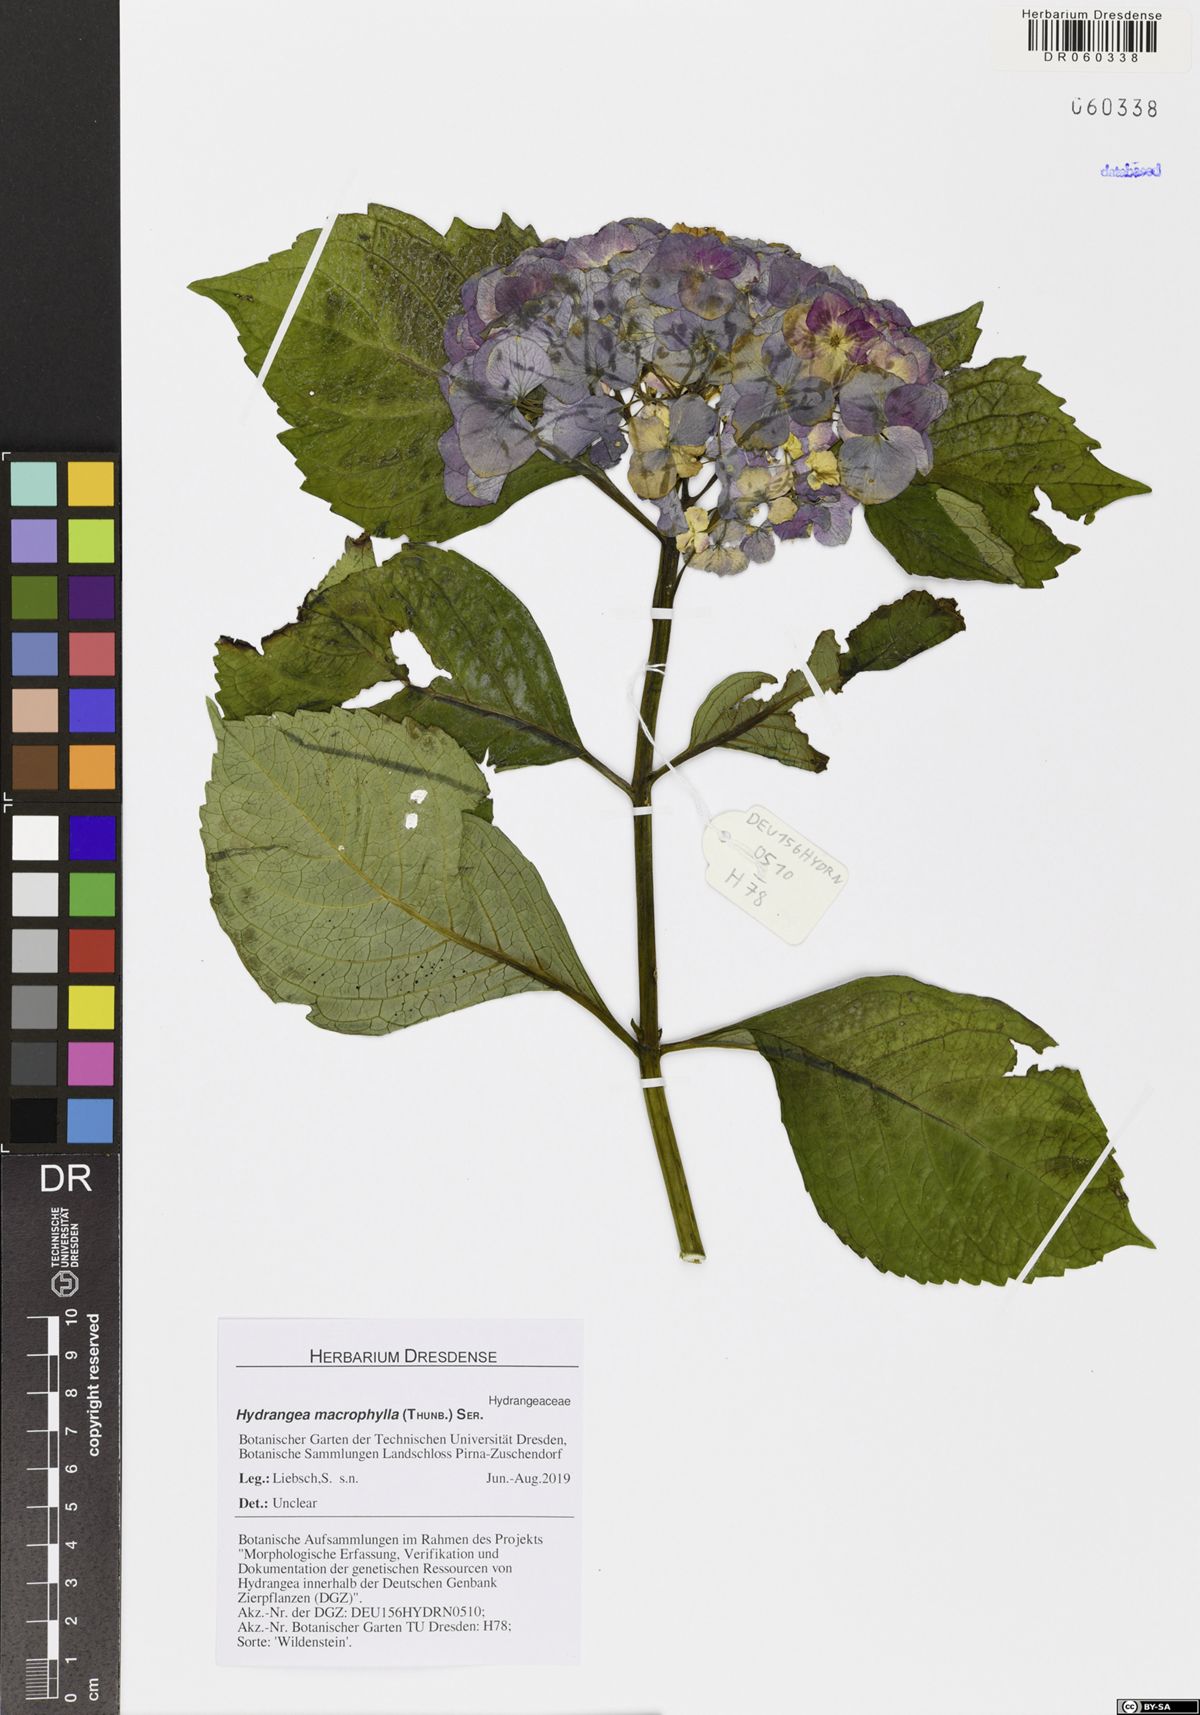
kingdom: Plantae
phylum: Tracheophyta
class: Magnoliopsida
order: Cornales
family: Hydrangeaceae
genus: Hydrangea
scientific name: Hydrangea macrophylla
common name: Hydrangea
